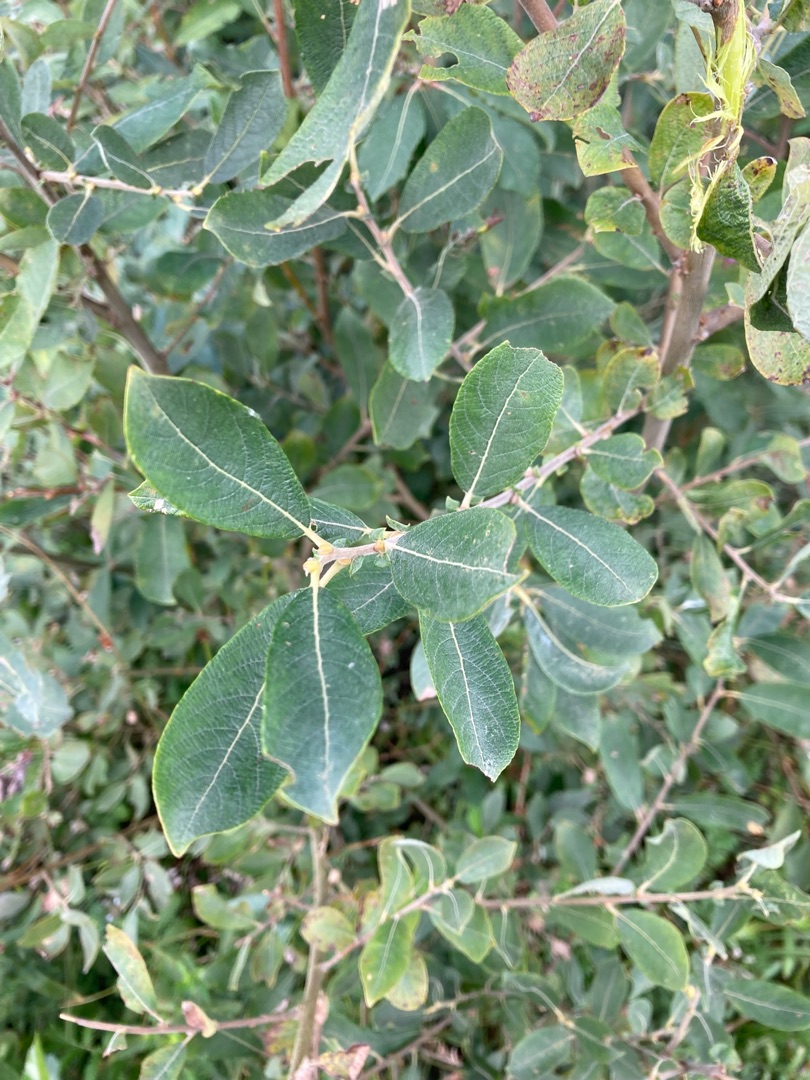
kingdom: Plantae
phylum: Tracheophyta
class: Magnoliopsida
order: Malpighiales
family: Salicaceae
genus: Salix
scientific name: Salix cinerea
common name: Grå-pil
